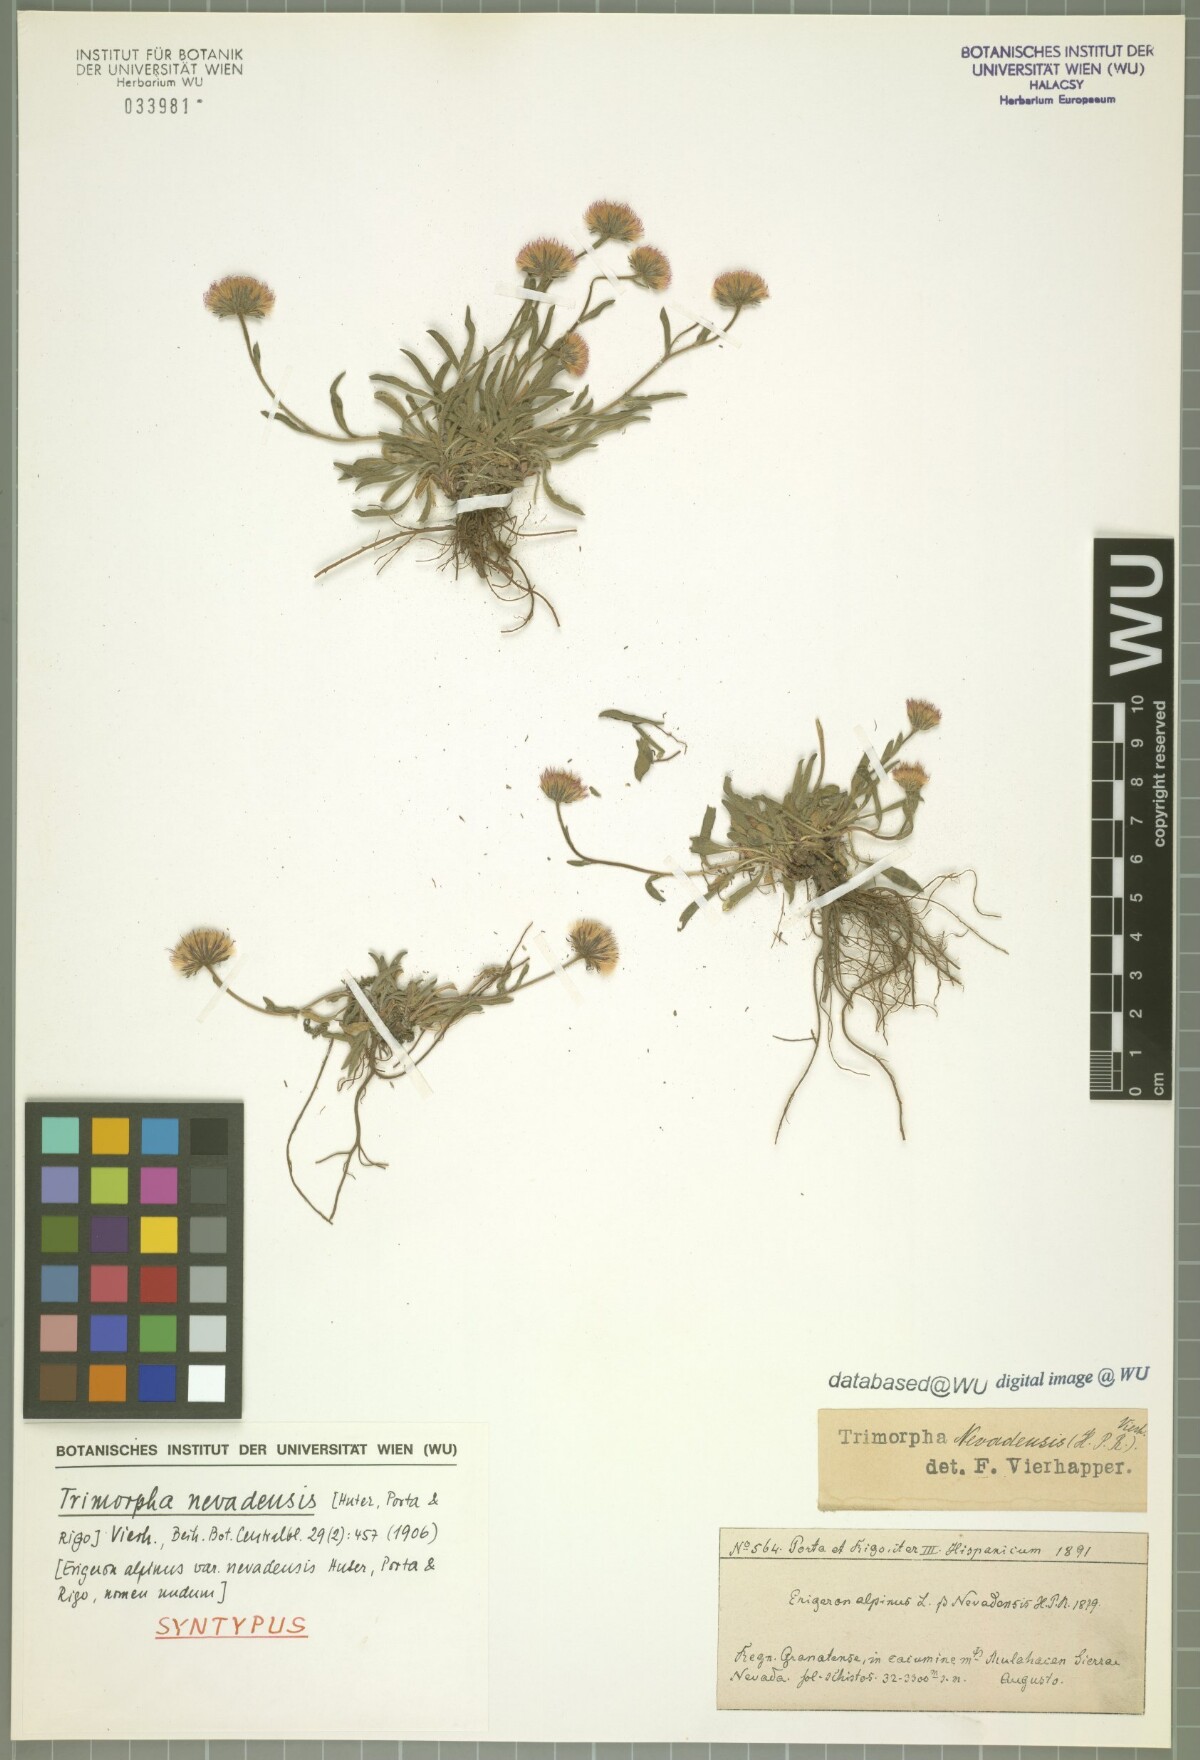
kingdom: Plantae
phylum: Tracheophyta
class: Magnoliopsida
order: Asterales
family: Asteraceae
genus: Erigeron
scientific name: Erigeron granatensis
